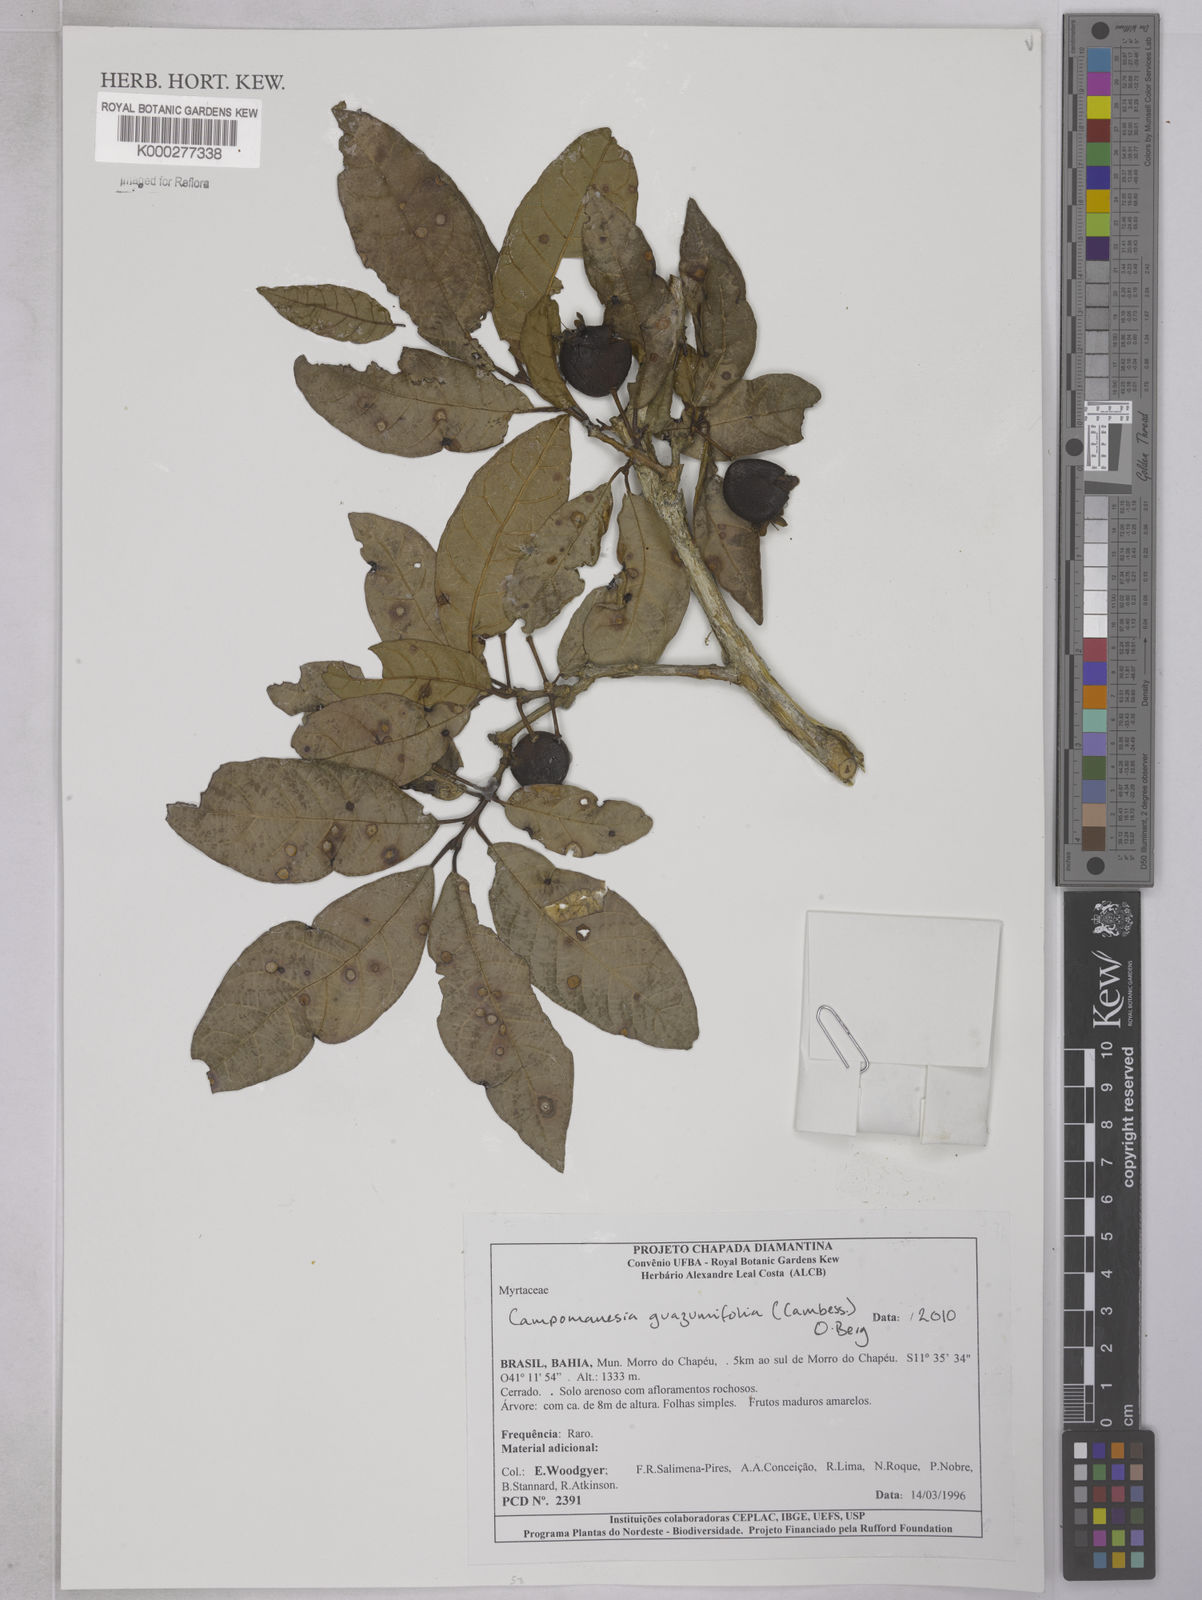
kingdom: Plantae
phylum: Tracheophyta
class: Magnoliopsida
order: Myrtales
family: Myrtaceae
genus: Campomanesia
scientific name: Campomanesia guazumifolia
